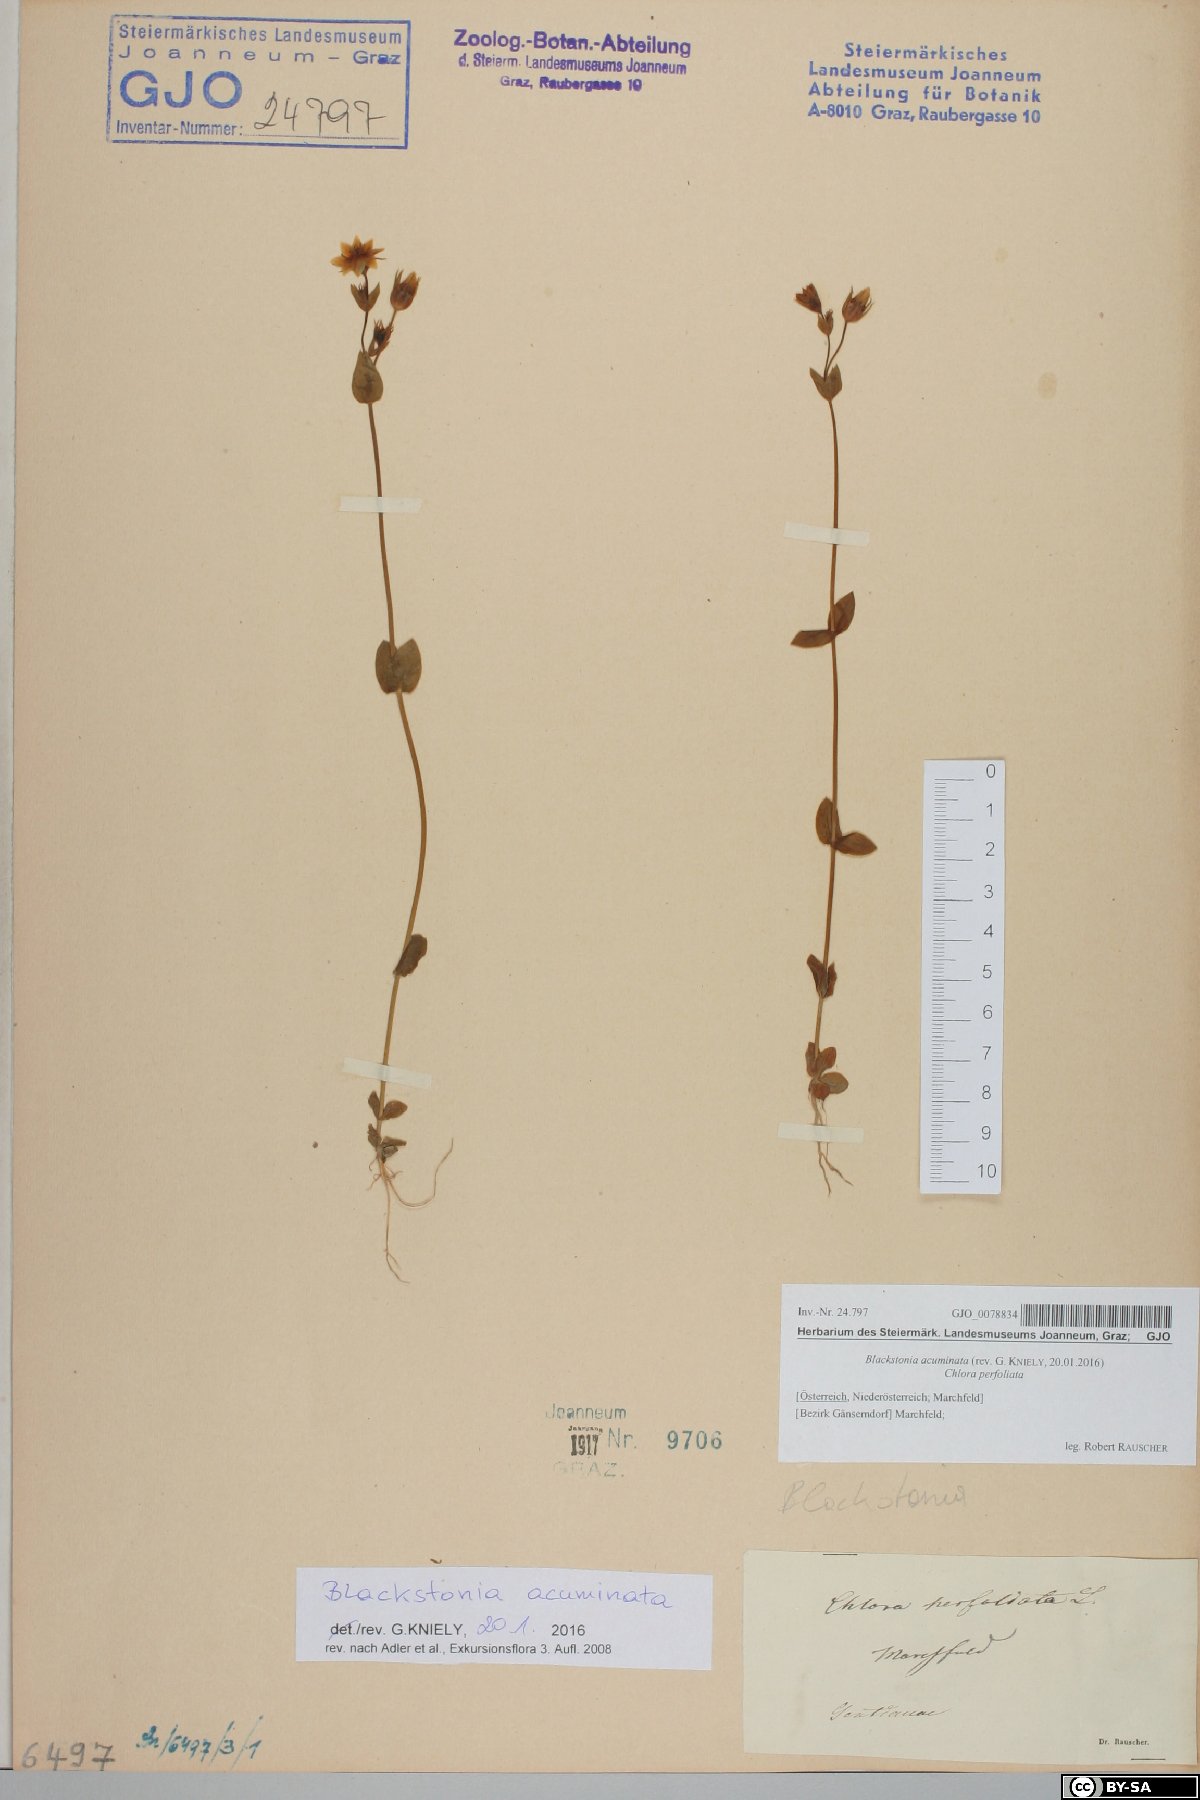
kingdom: Plantae
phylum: Tracheophyta
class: Magnoliopsida
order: Gentianales
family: Gentianaceae
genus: Blackstonia
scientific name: Blackstonia acuminata
